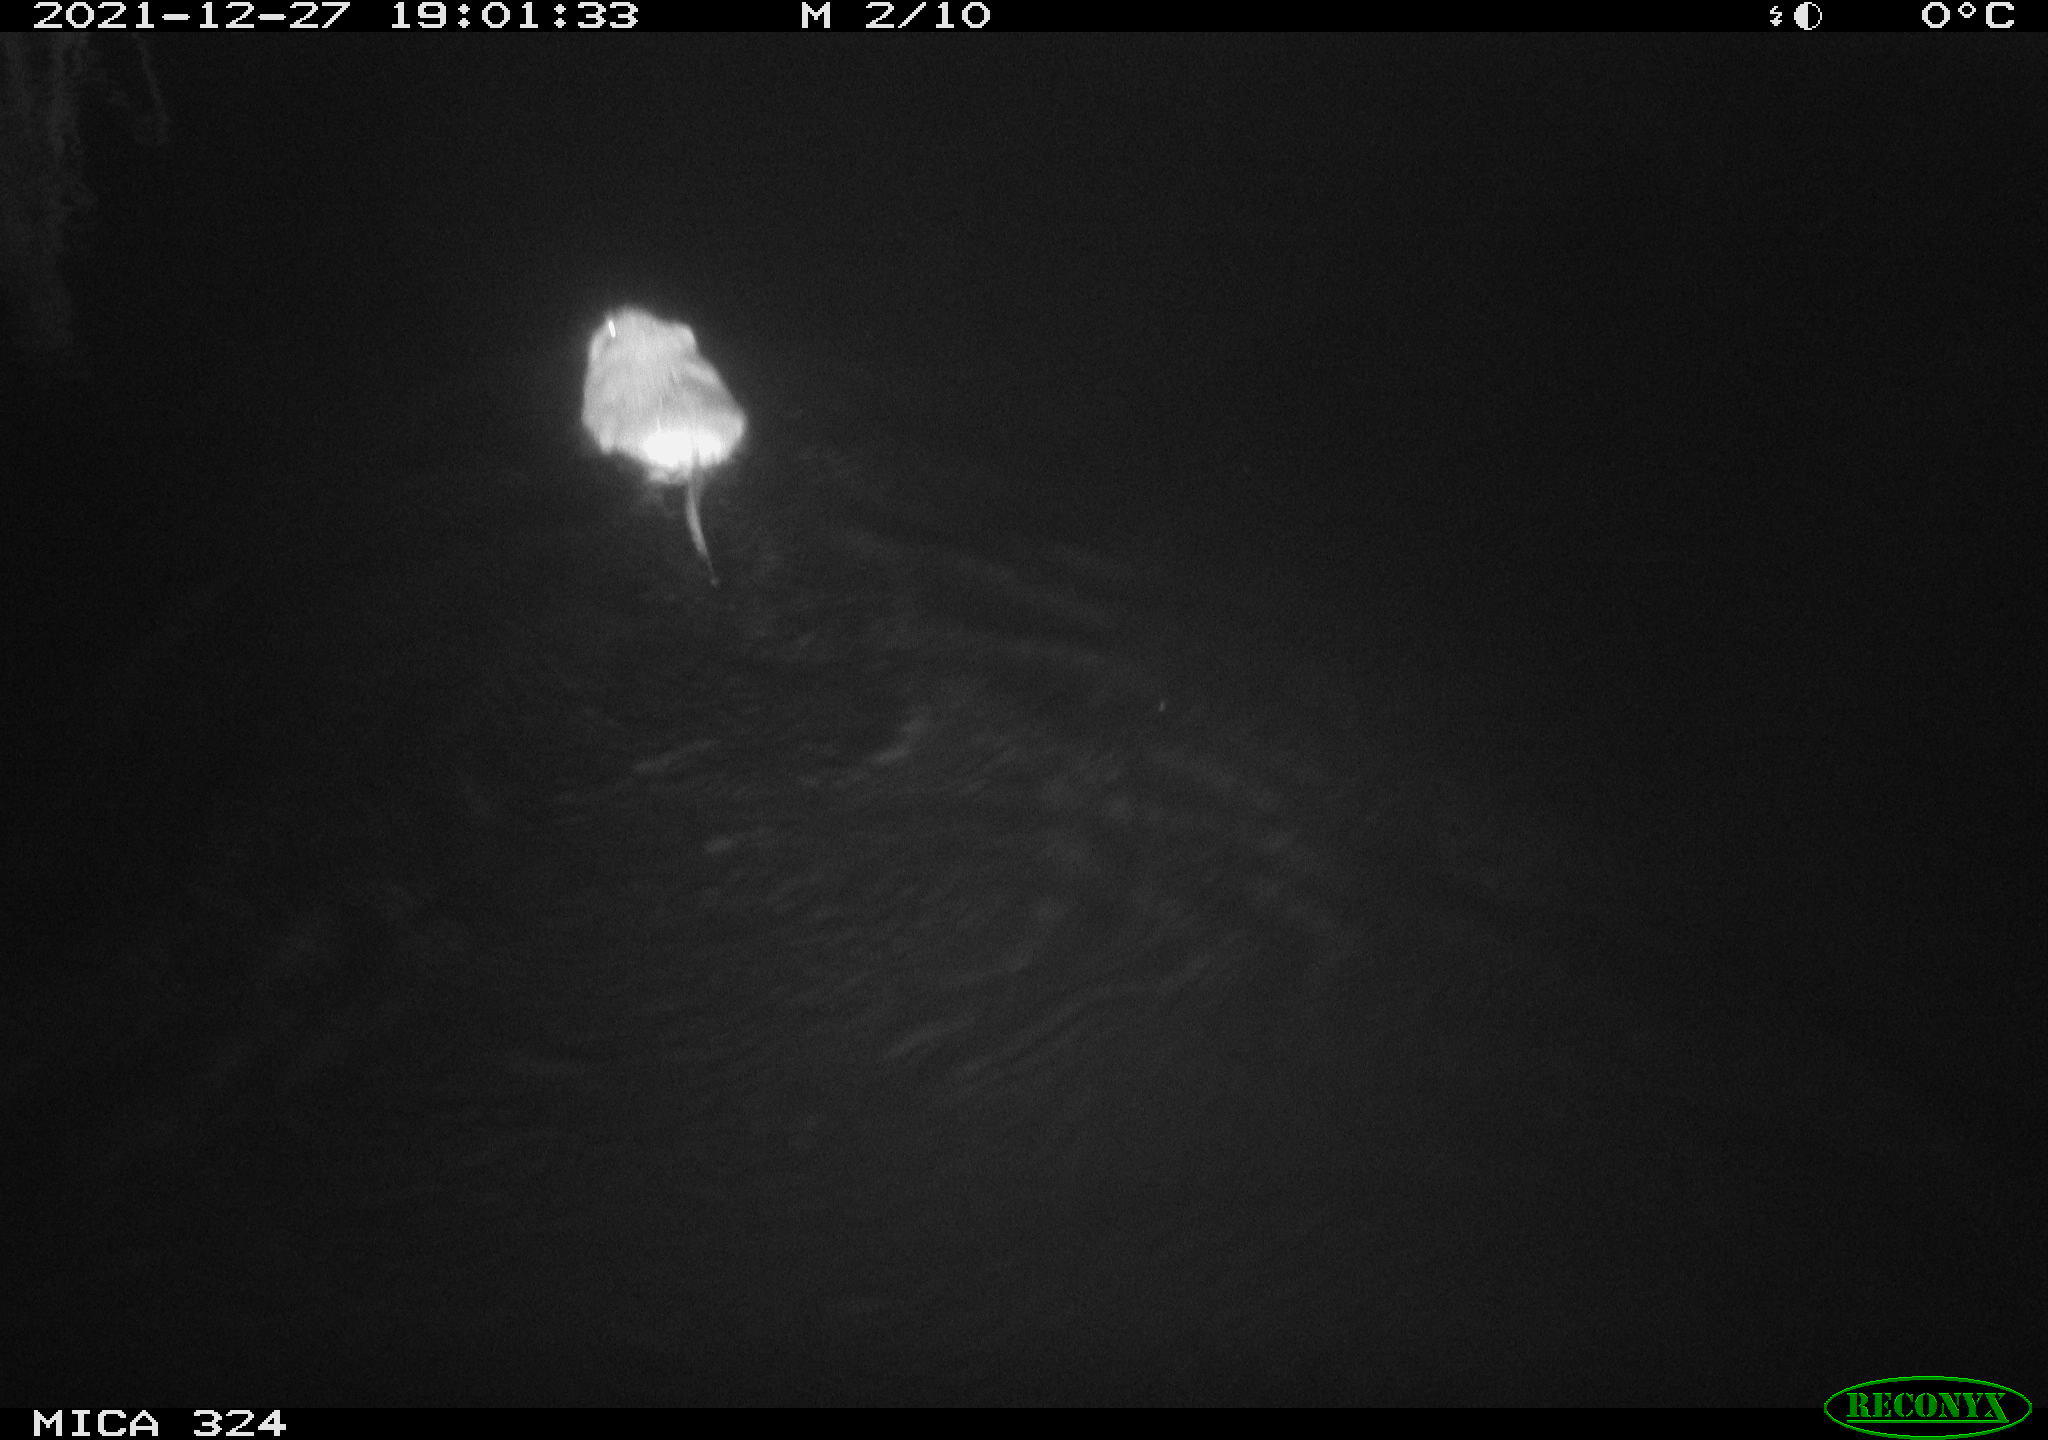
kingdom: Animalia
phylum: Chordata
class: Mammalia
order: Rodentia
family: Cricetidae
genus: Ondatra
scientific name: Ondatra zibethicus
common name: Muskrat
